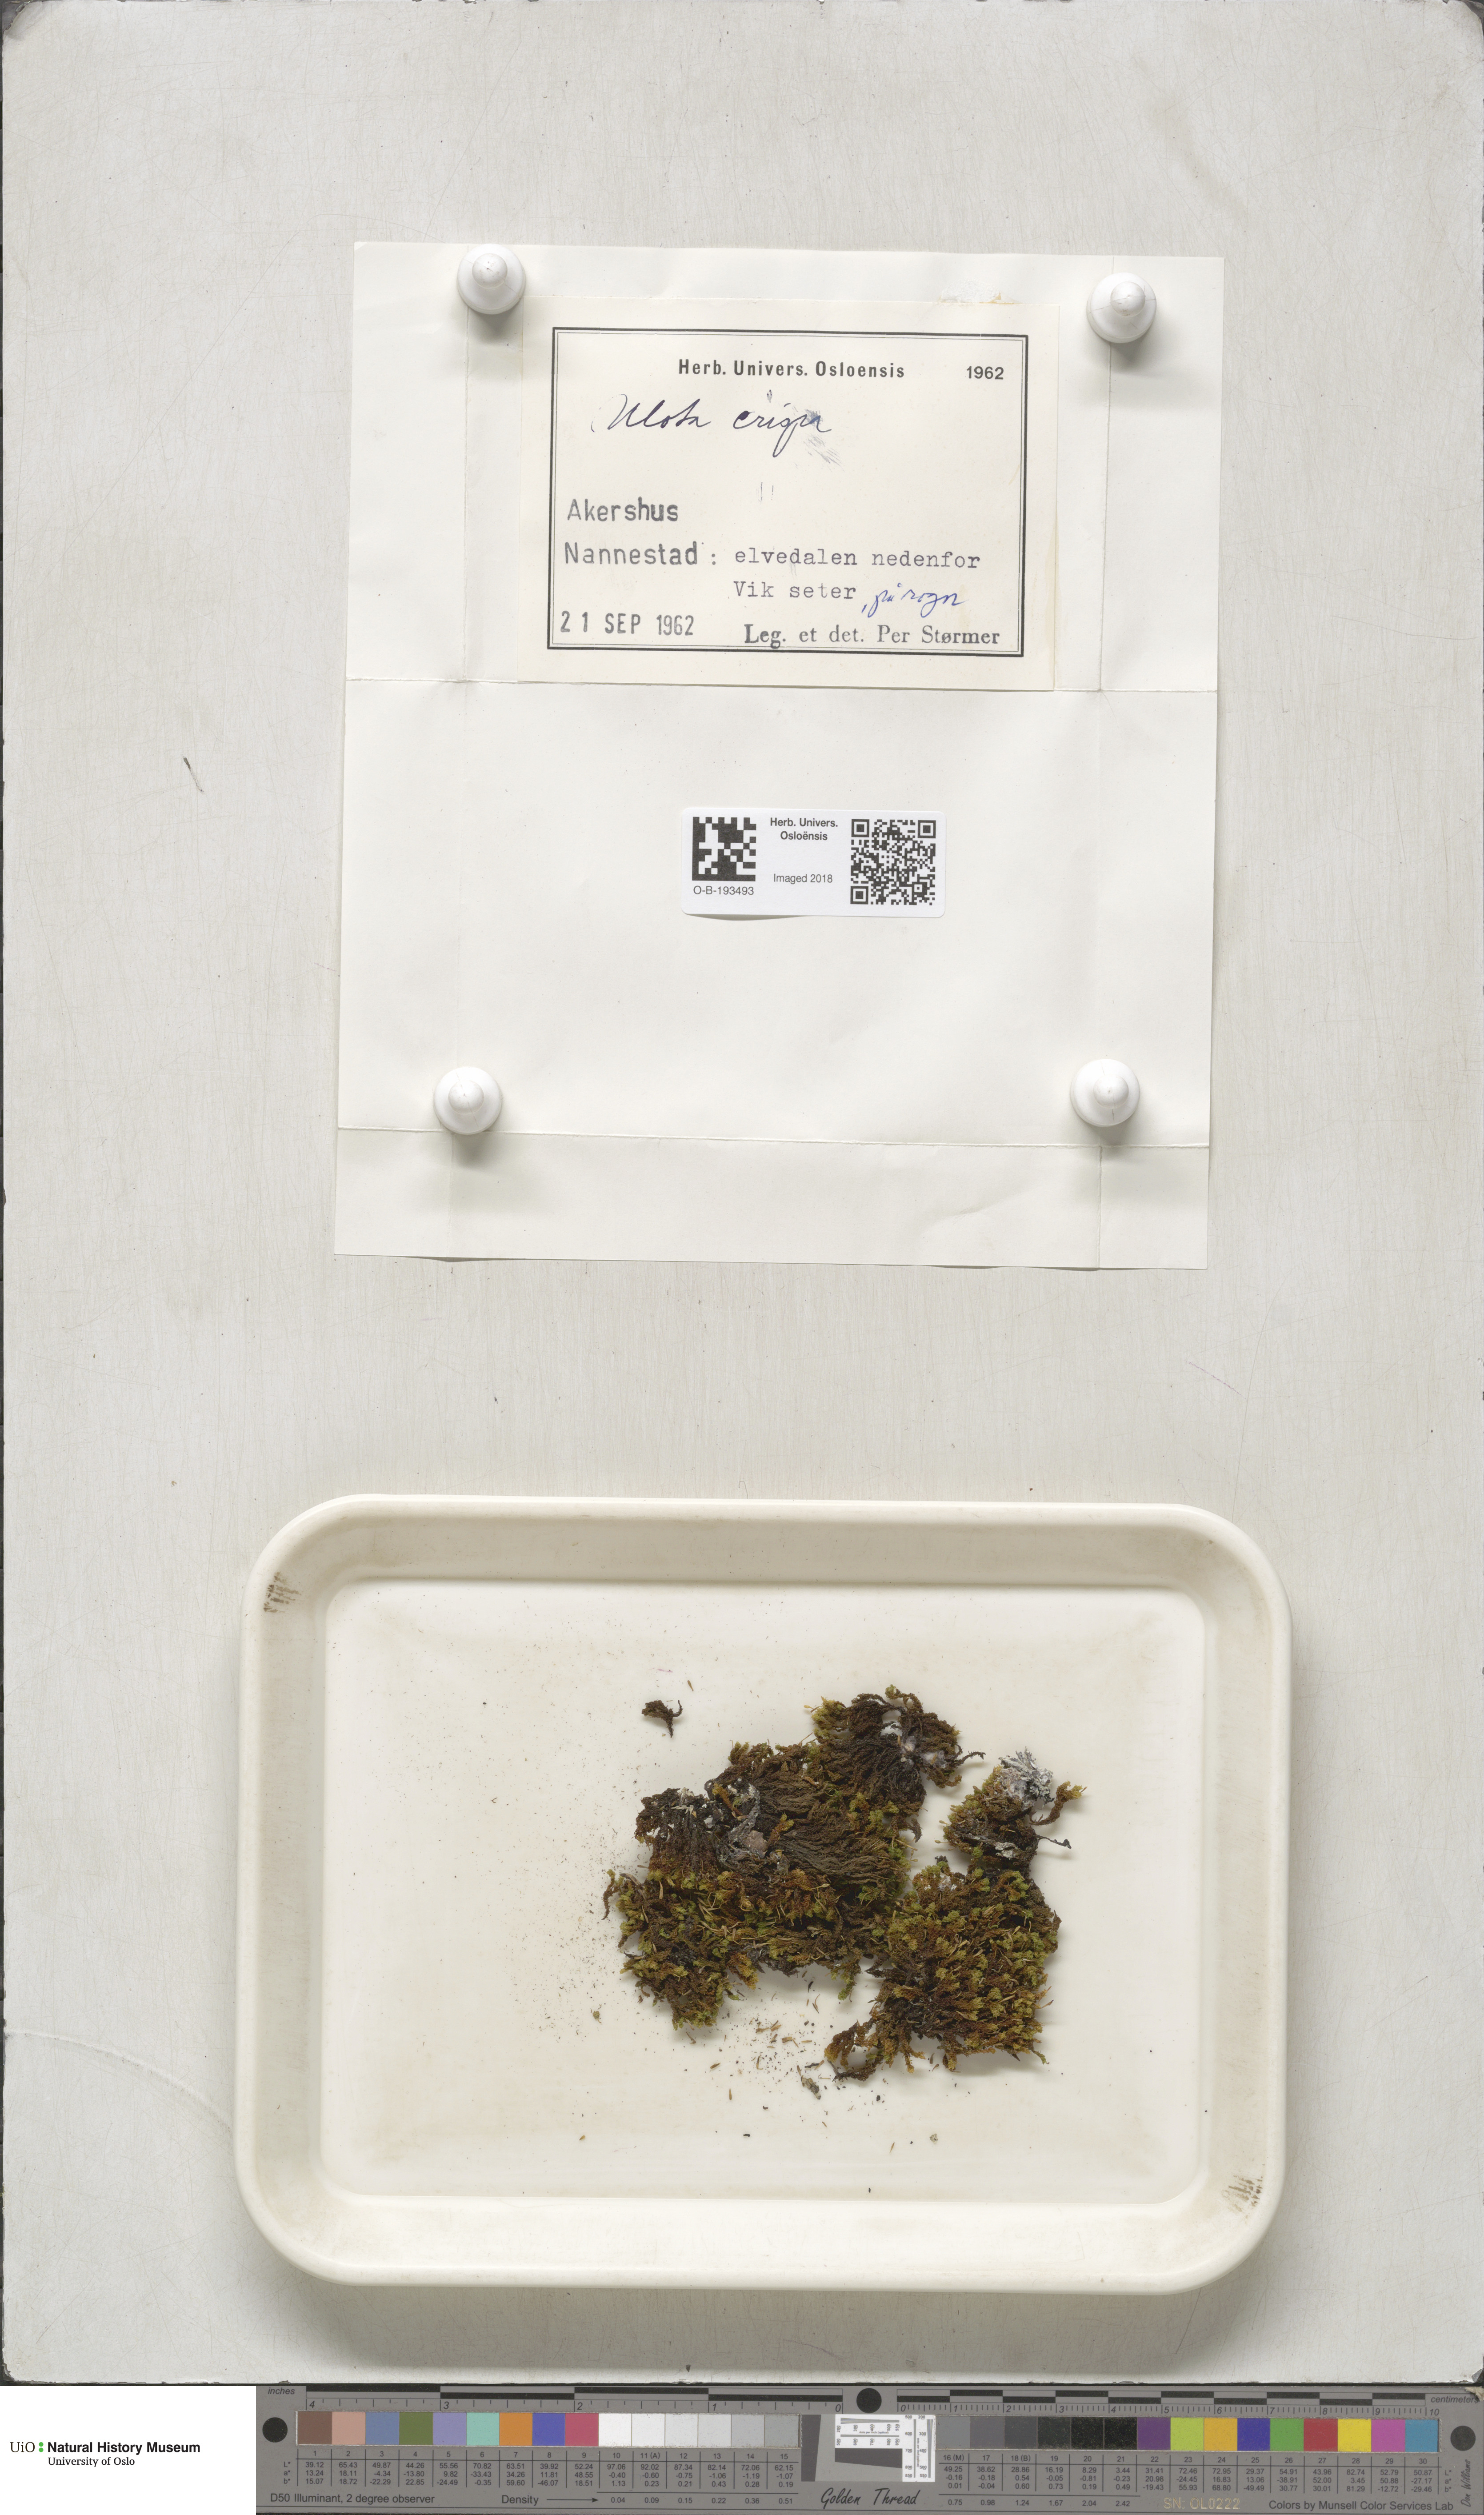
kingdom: Plantae
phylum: Bryophyta
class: Bryopsida
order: Orthotrichales
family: Orthotrichaceae
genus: Ulota
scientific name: Ulota crispa
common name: Crisped pincushion moss
